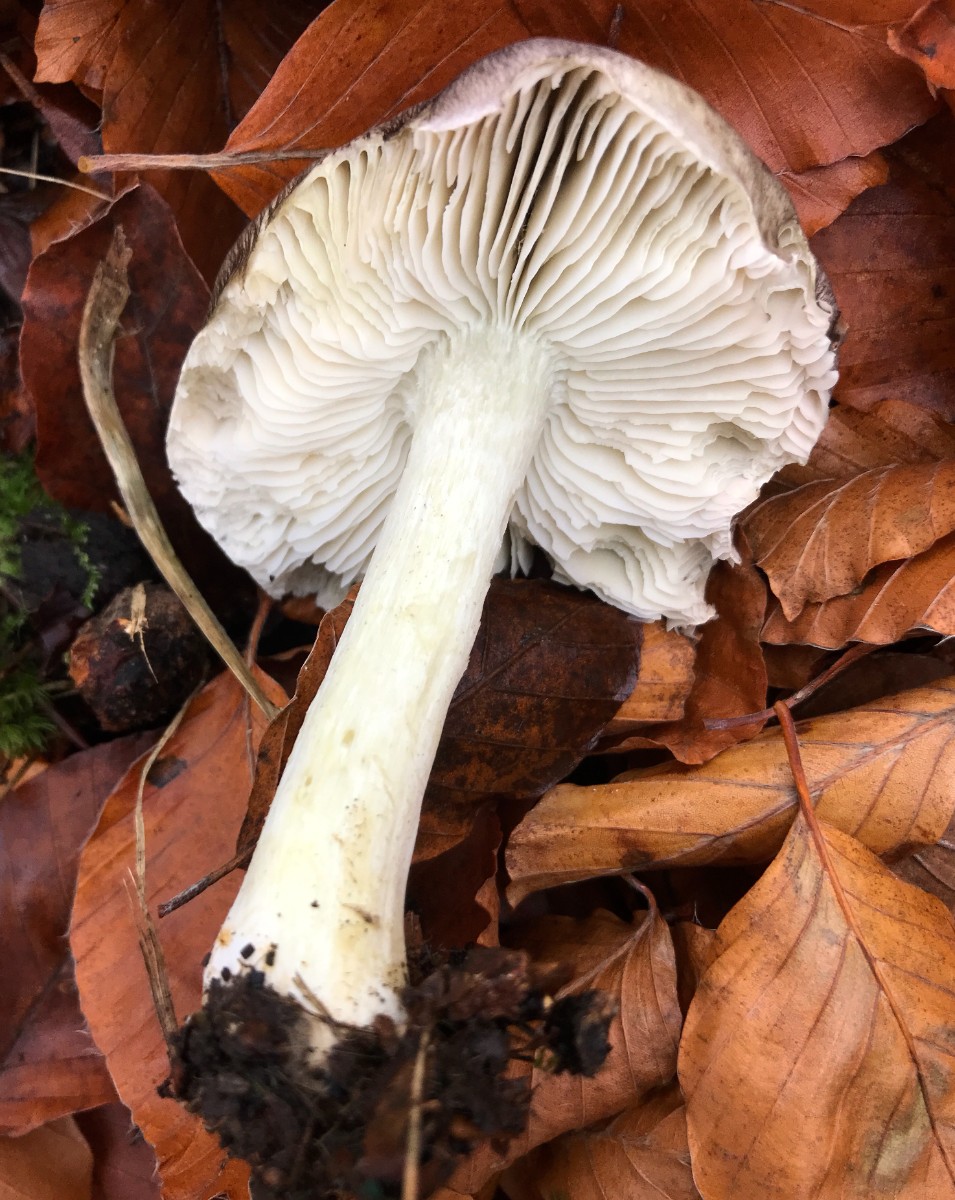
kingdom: Fungi
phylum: Basidiomycota
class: Agaricomycetes
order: Agaricales
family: Tricholomataceae
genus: Tricholoma
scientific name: Tricholoma sciodes
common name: stribet ridderhat
